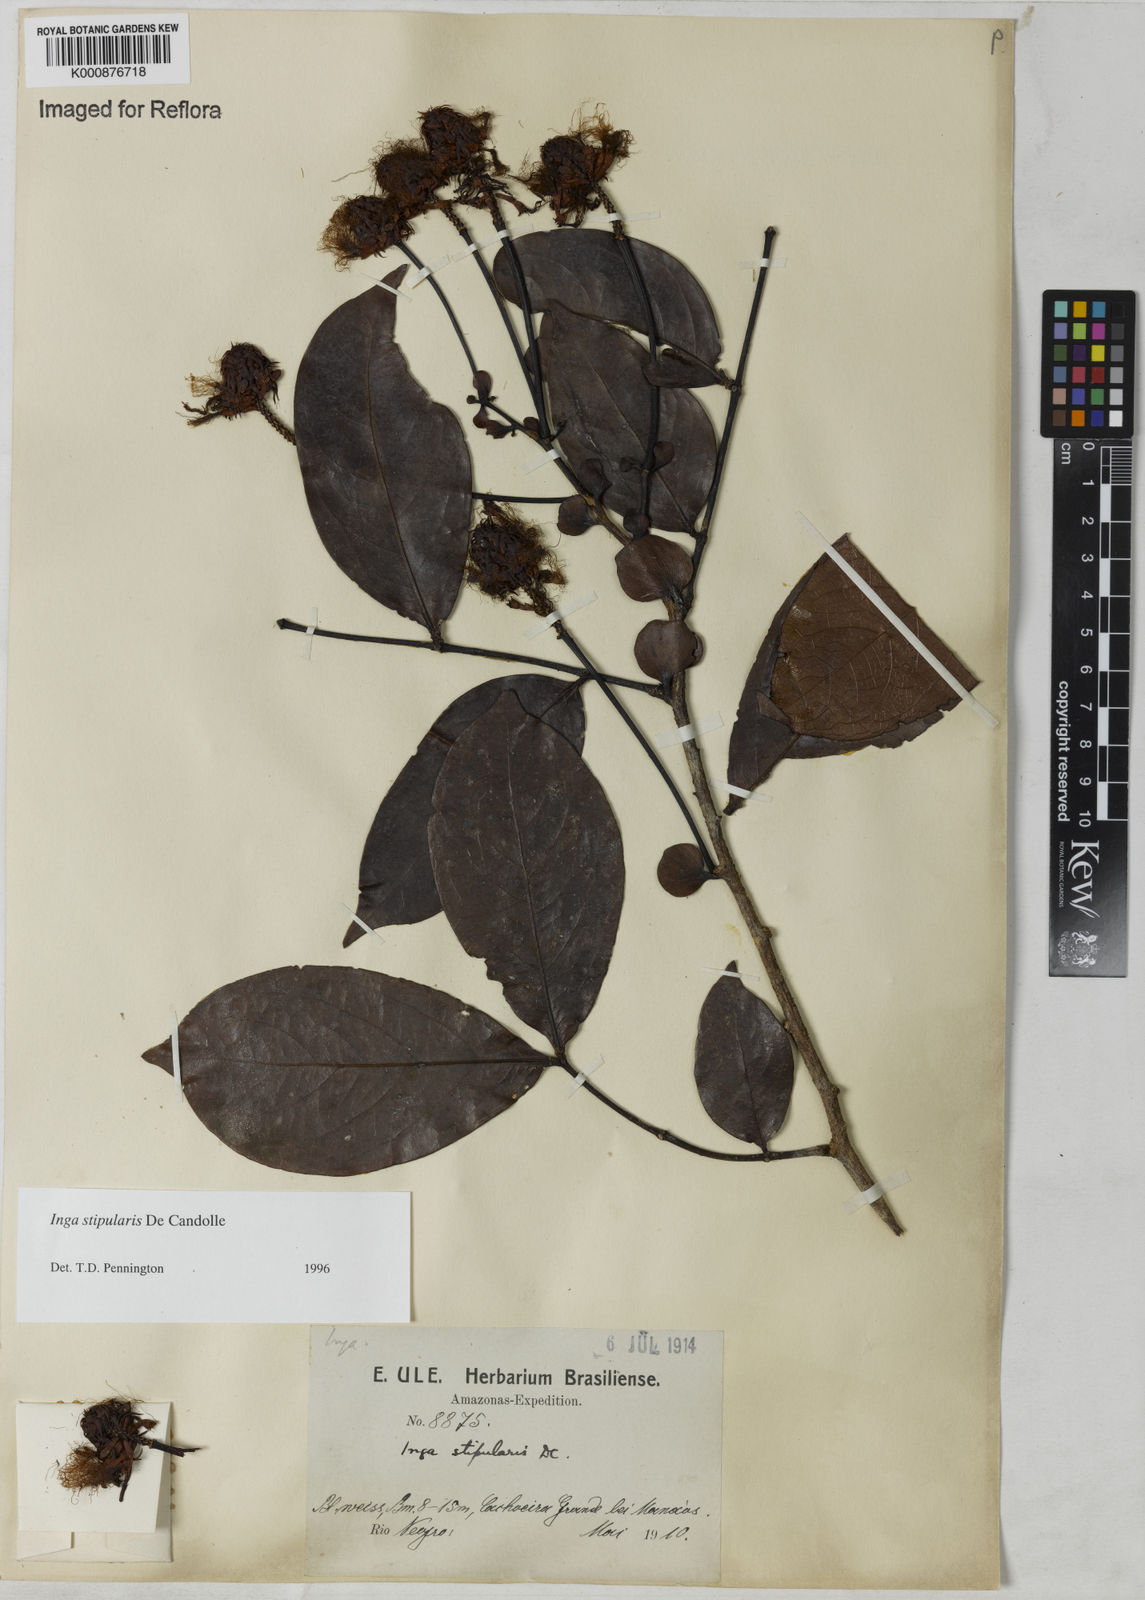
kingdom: Plantae
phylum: Tracheophyta
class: Magnoliopsida
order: Fabales
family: Fabaceae
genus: Inga
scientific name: Inga stipularis
